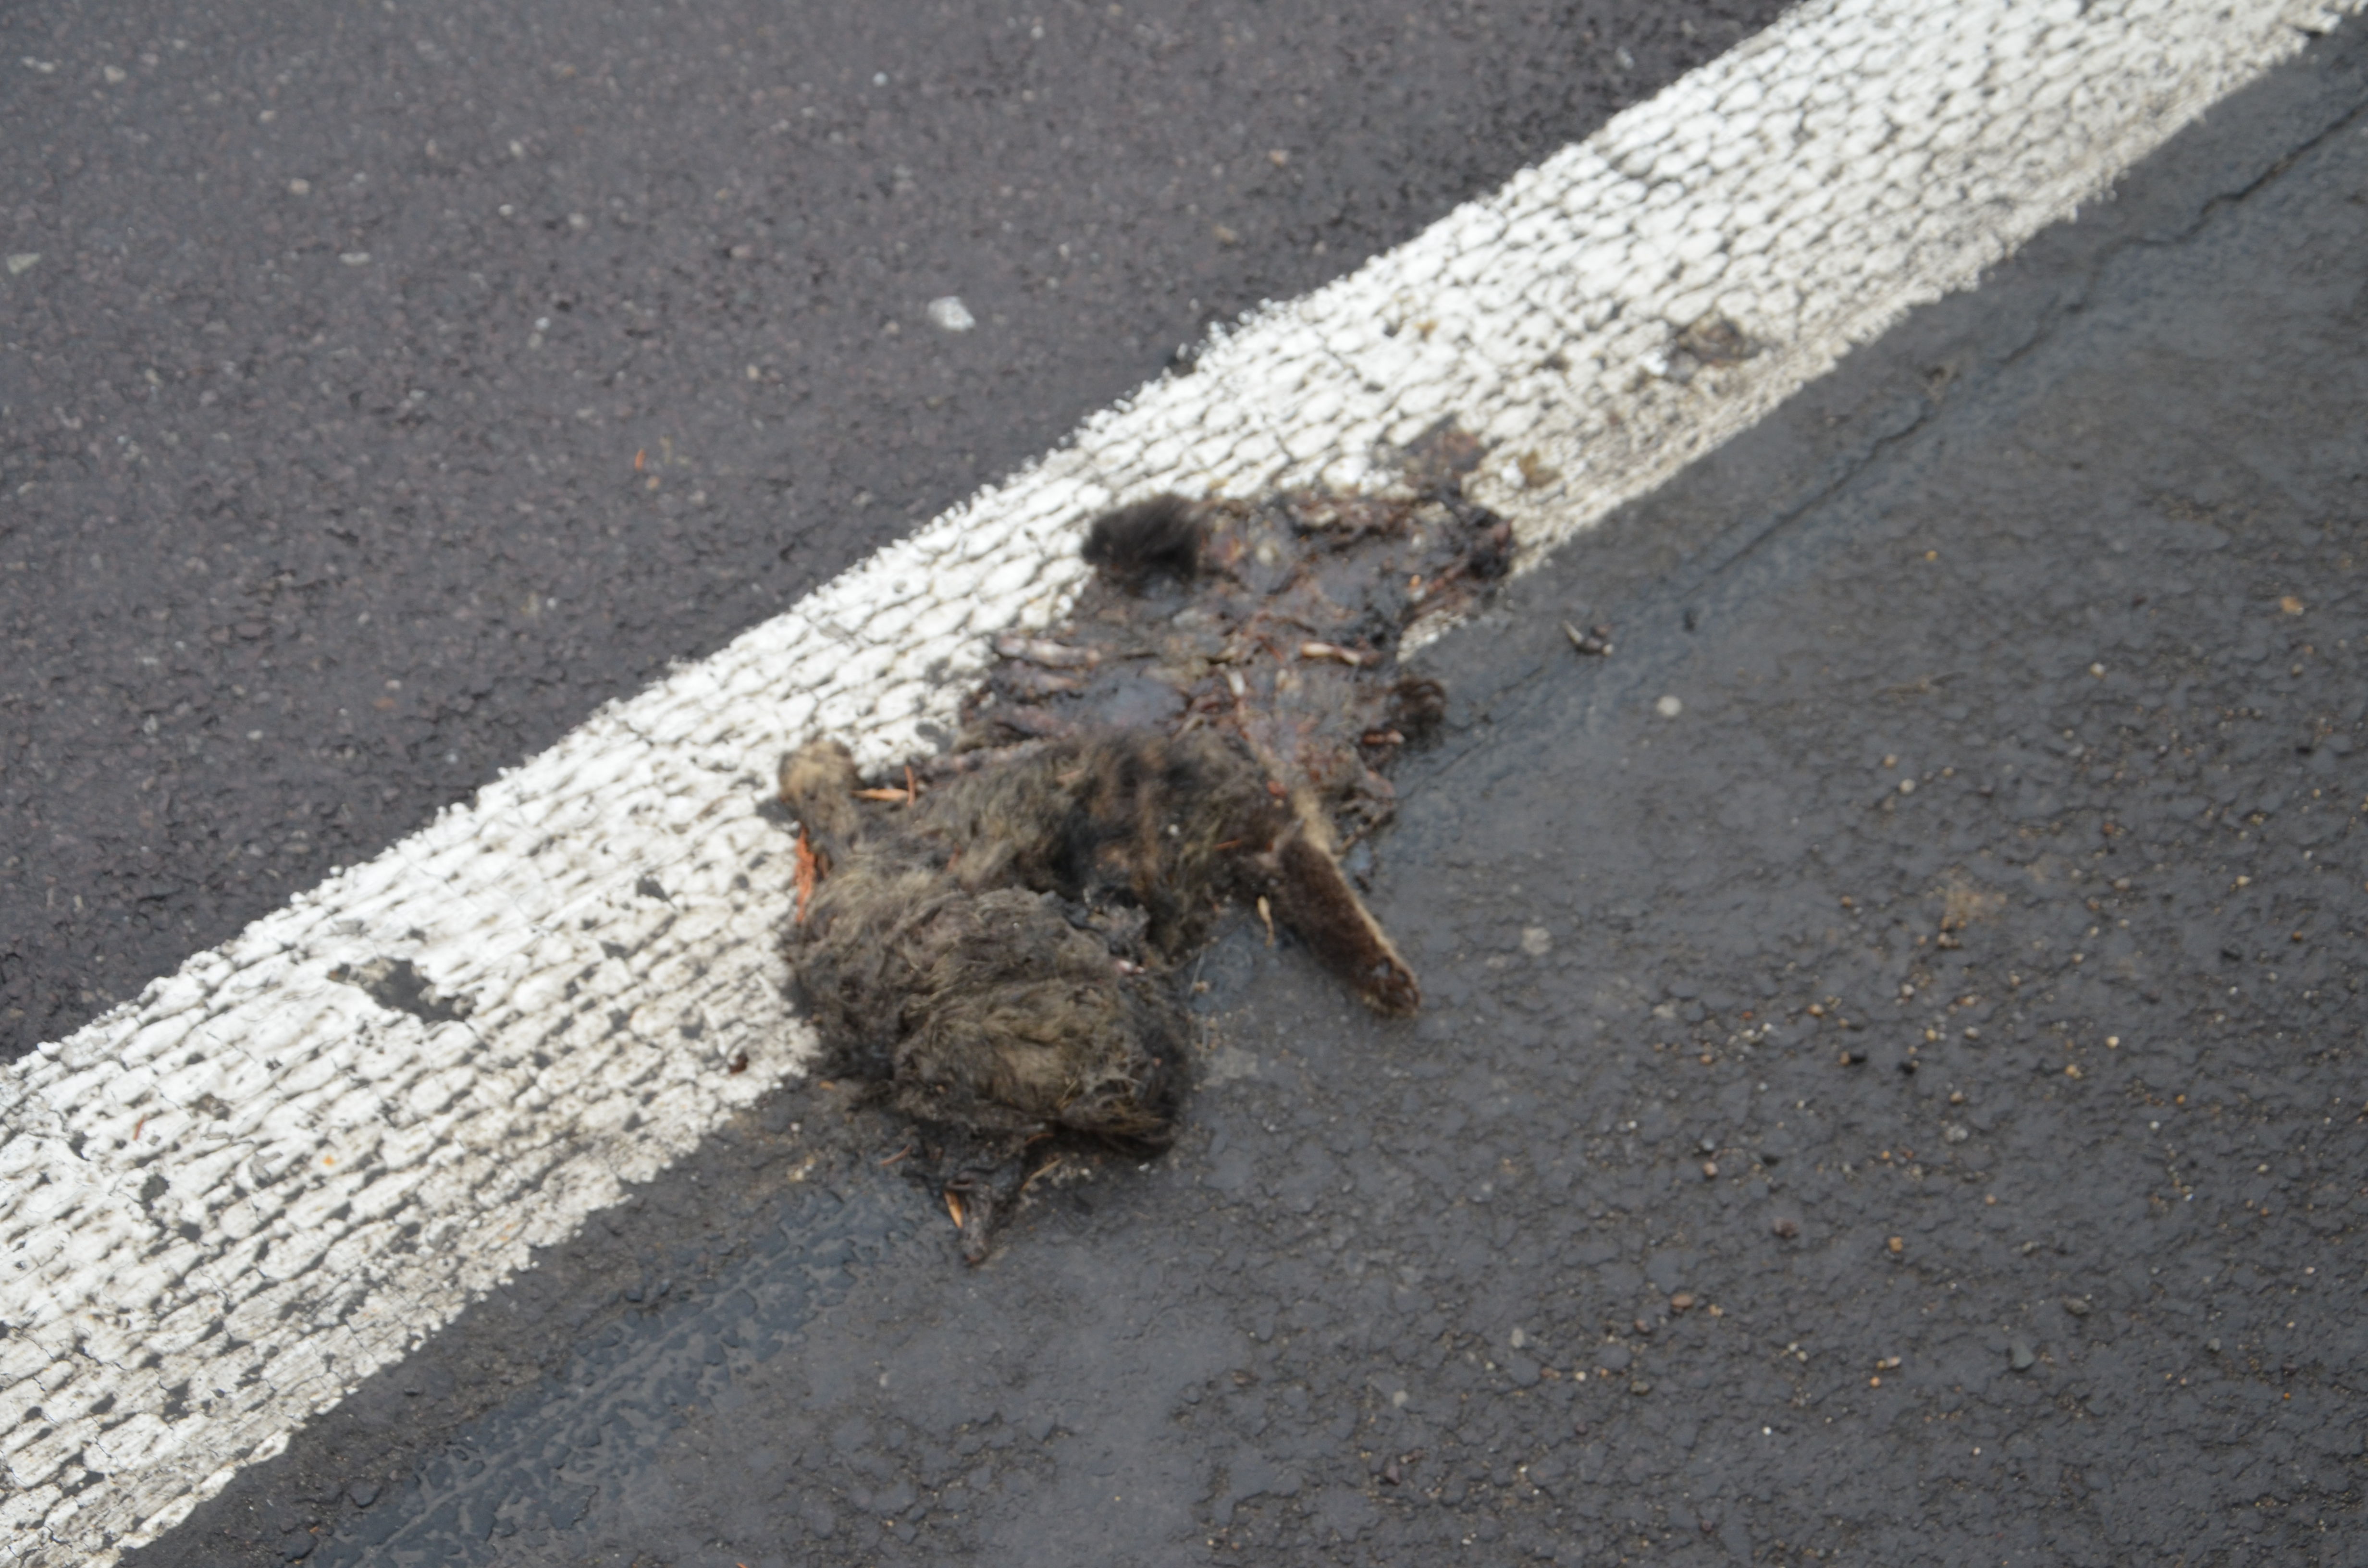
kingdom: Animalia
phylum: Chordata
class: Mammalia
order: Carnivora
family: Felidae
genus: Felis
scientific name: Felis catus
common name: Domestic cat
